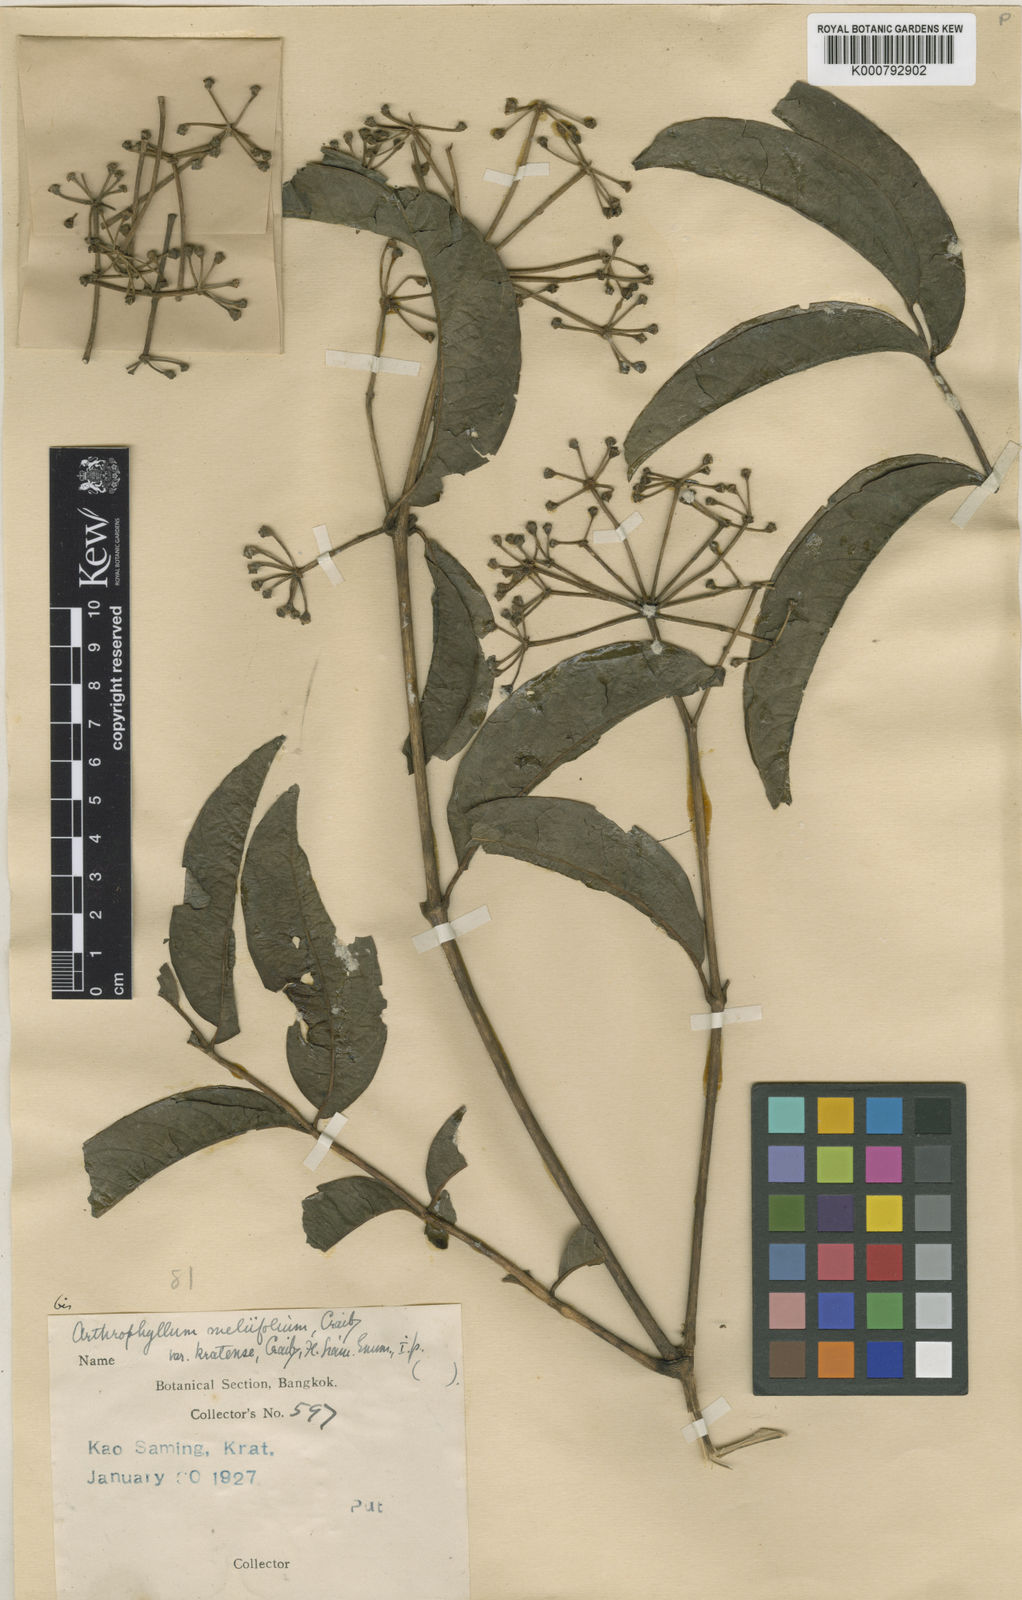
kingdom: Plantae
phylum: Tracheophyta
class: Magnoliopsida
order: Apiales
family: Araliaceae
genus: Polyscias
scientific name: Polyscias meliifolia
